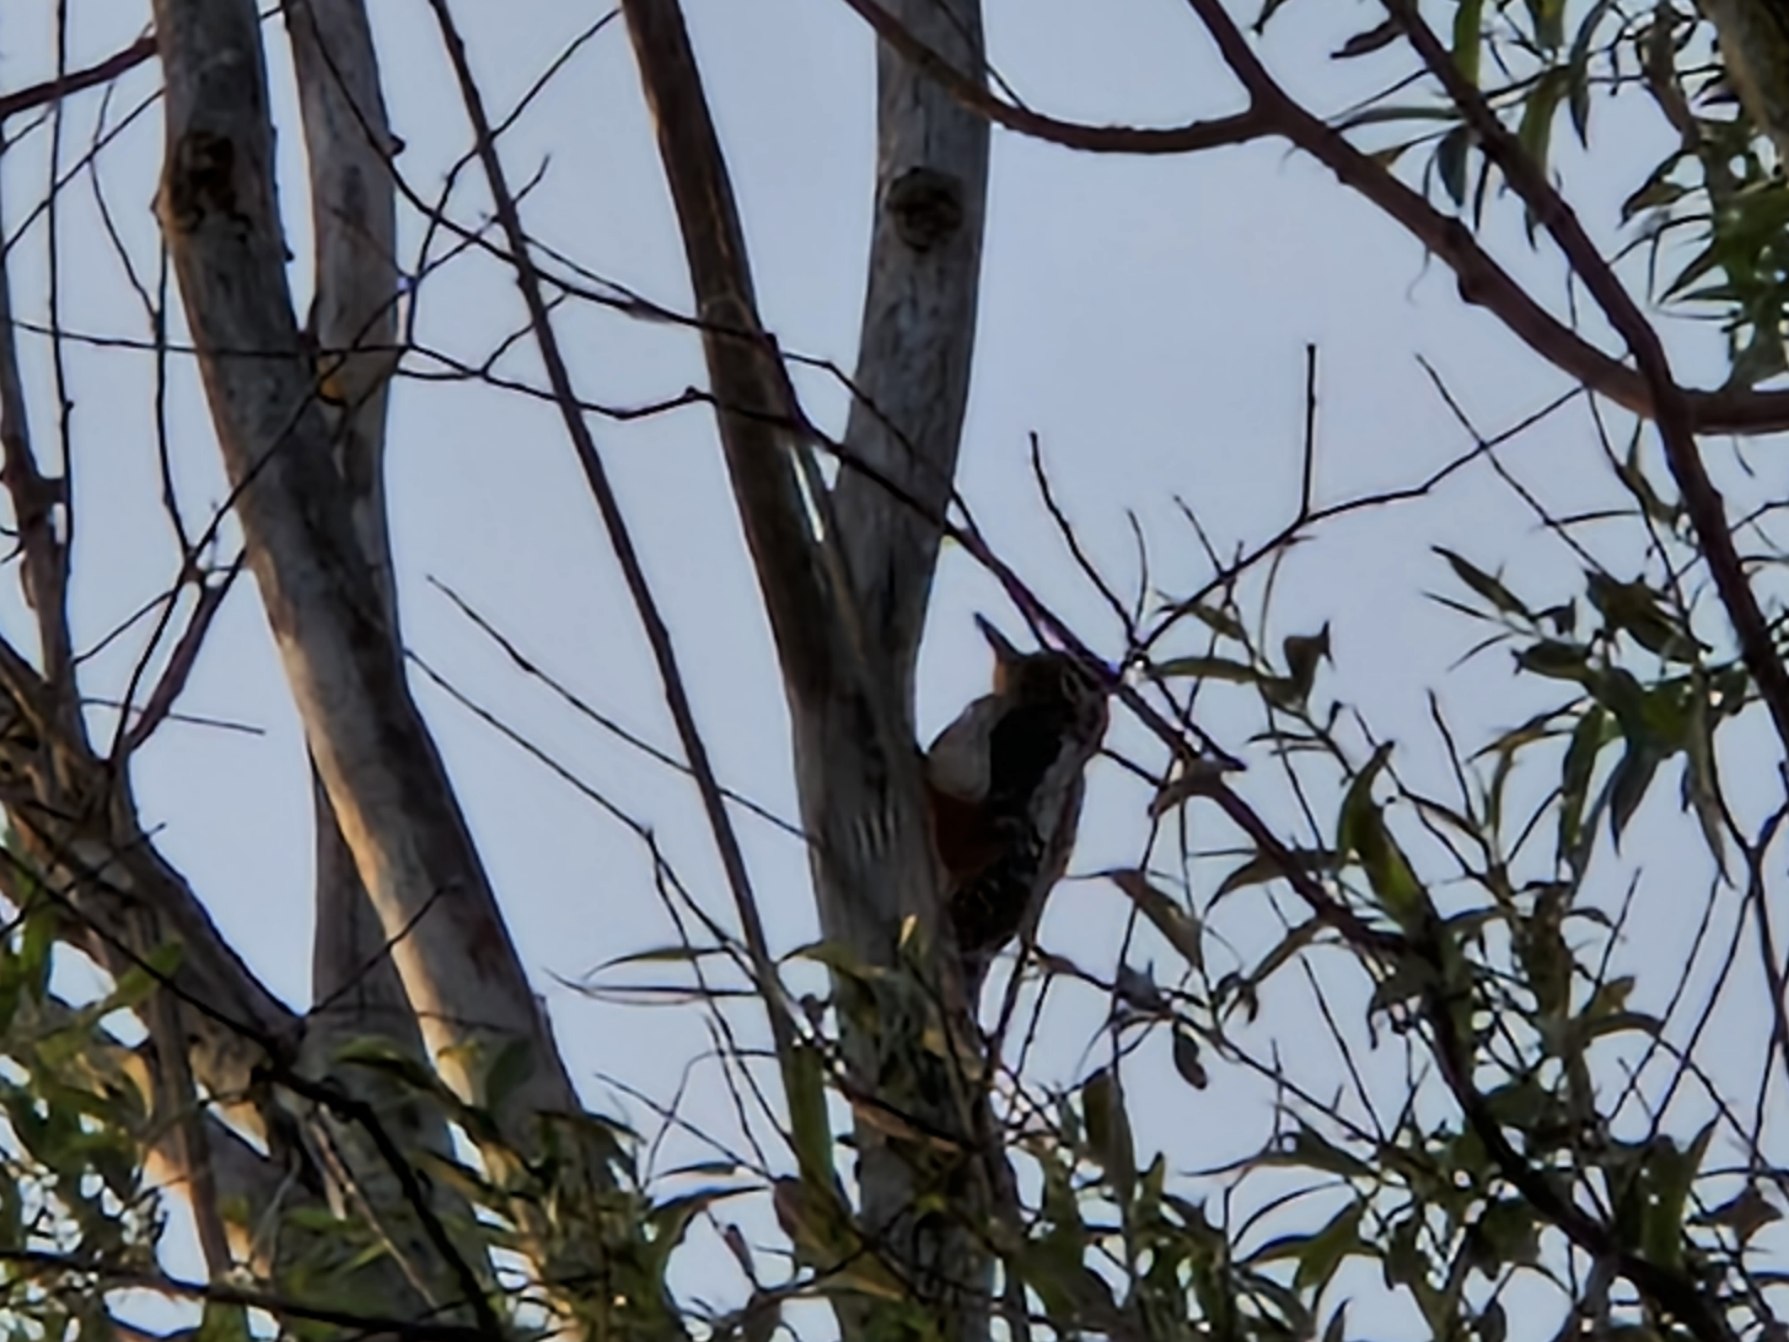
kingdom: Animalia
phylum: Chordata
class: Aves
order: Piciformes
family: Picidae
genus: Dendrocopos
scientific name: Dendrocopos major
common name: Stor flagspætte
